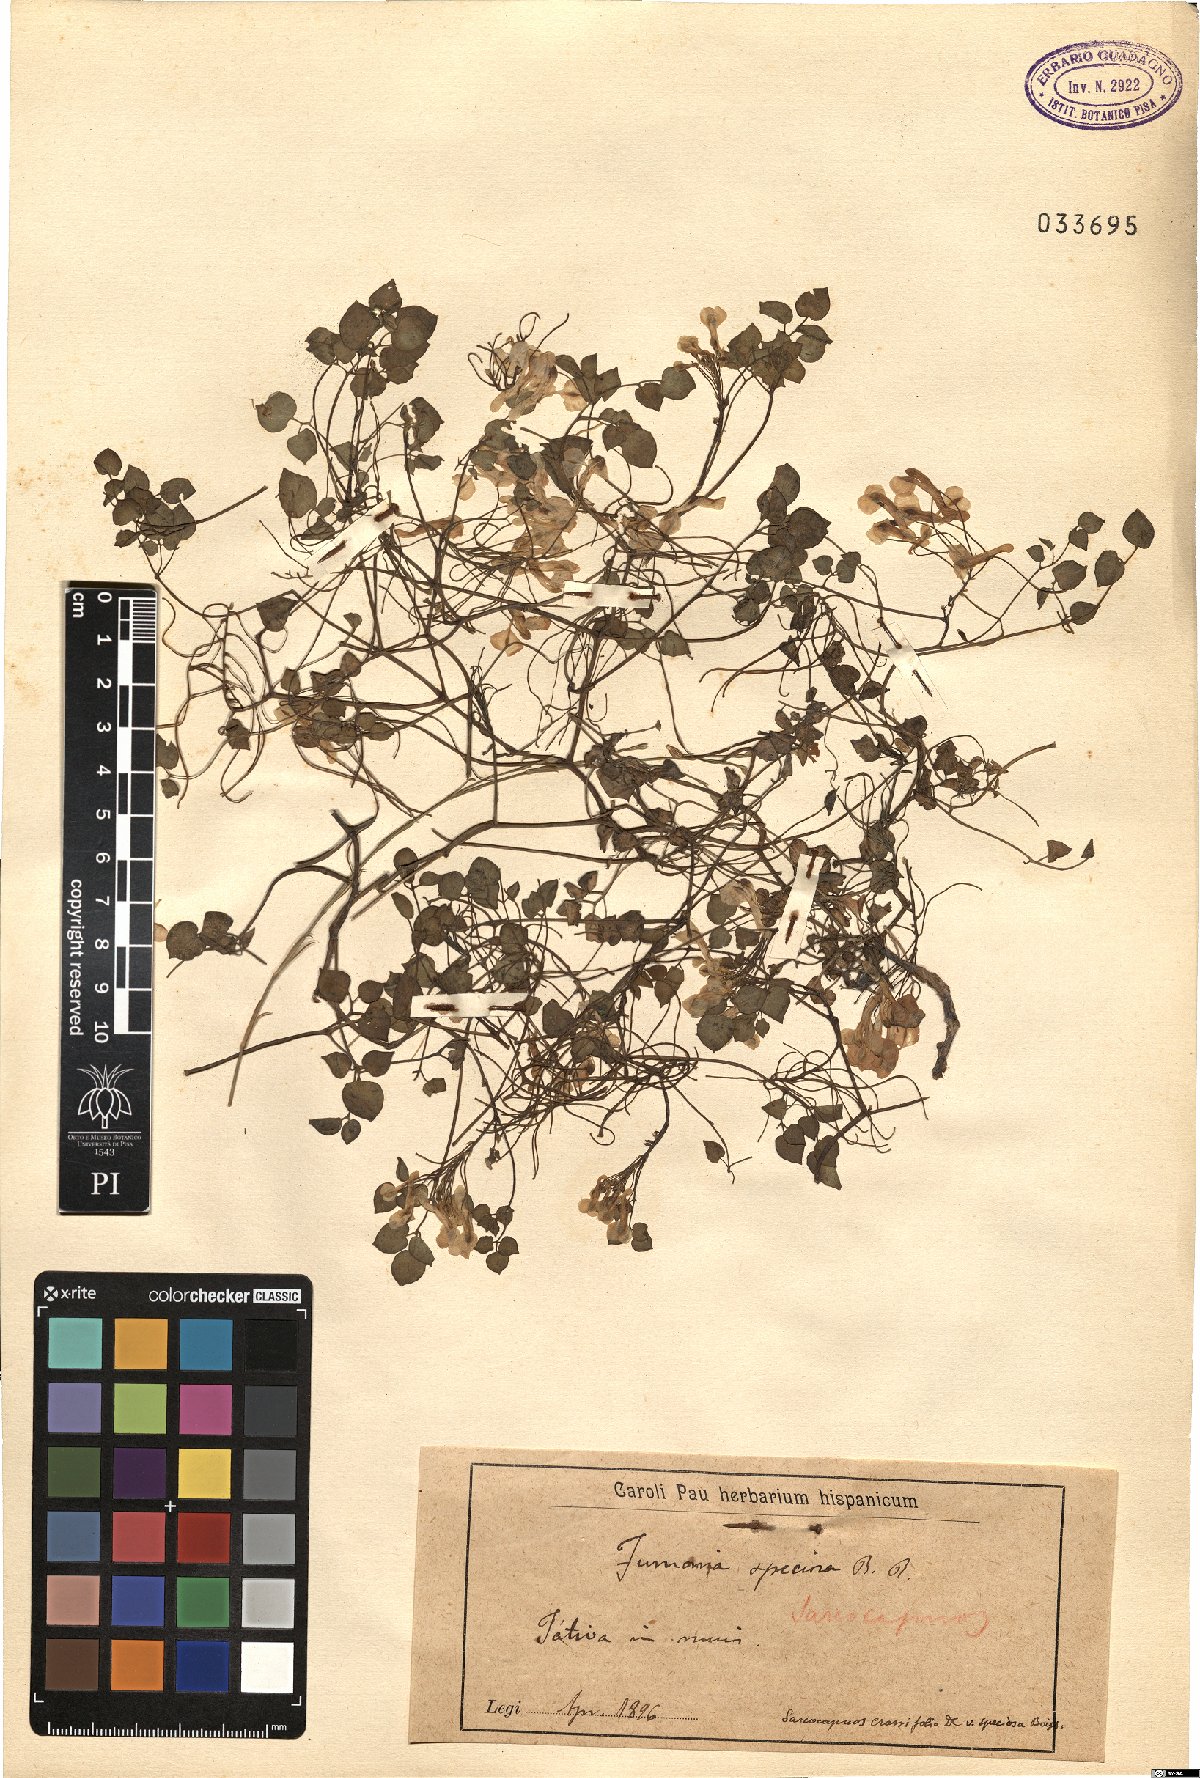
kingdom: Plantae
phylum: Tracheophyta
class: Magnoliopsida
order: Ranunculales
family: Papaveraceae
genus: Fumaria
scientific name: Fumaria capreolata
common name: White ramping-fumitory
